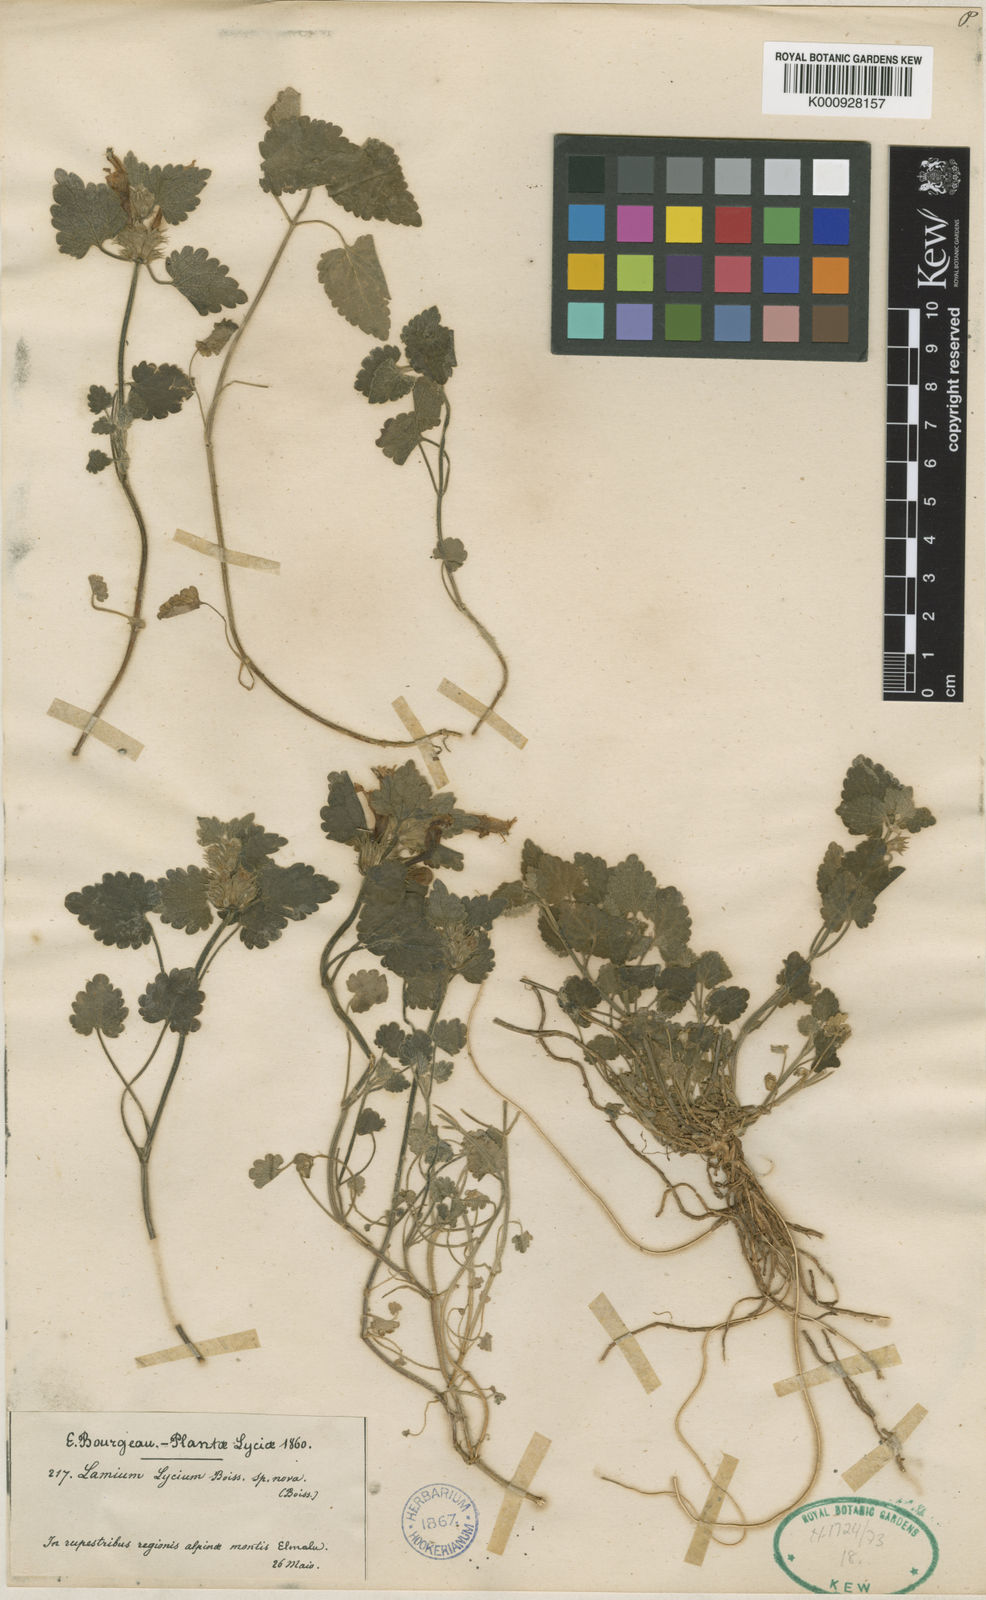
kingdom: Plantae
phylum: Tracheophyta
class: Magnoliopsida
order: Lamiales
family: Lamiaceae
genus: Lamium
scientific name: Lamium garganicum
